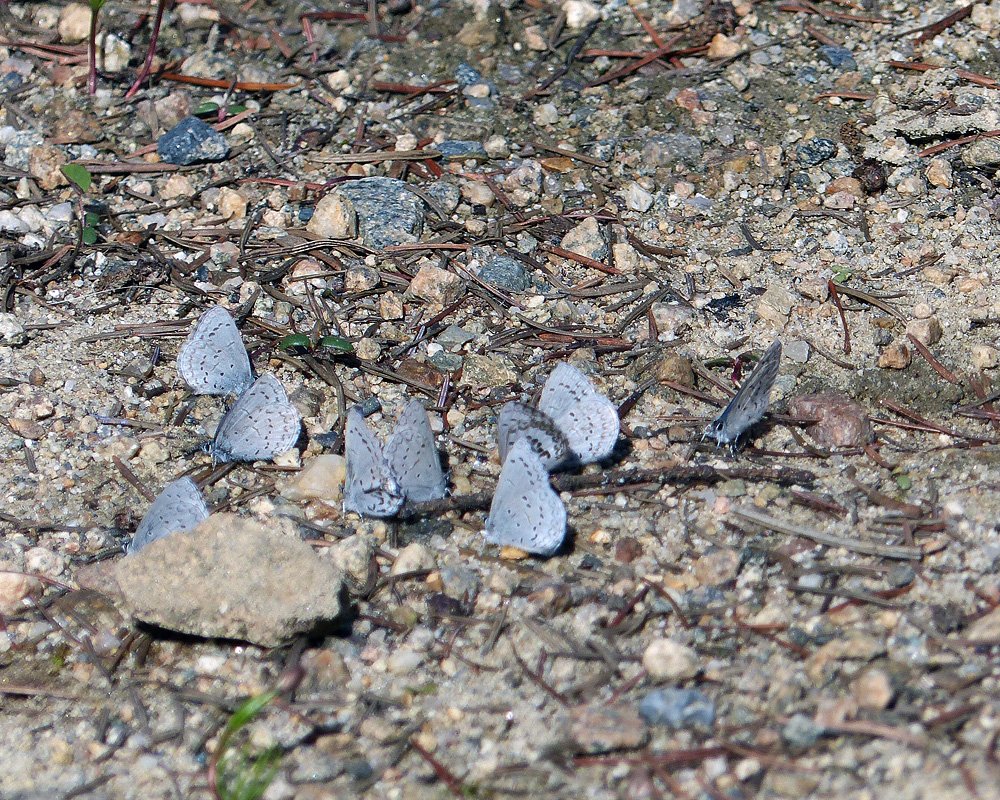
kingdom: Animalia
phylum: Arthropoda
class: Insecta
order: Lepidoptera
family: Lycaenidae
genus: Celastrina
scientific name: Celastrina ladon
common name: Echo Azure
